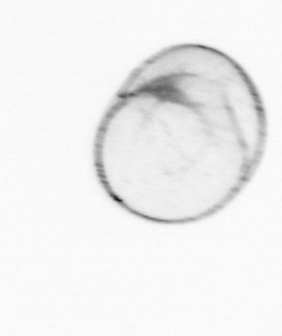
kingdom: Chromista
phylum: Myzozoa
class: Dinophyceae
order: Noctilucales
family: Noctilucaceae
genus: Noctiluca
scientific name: Noctiluca scintillans
